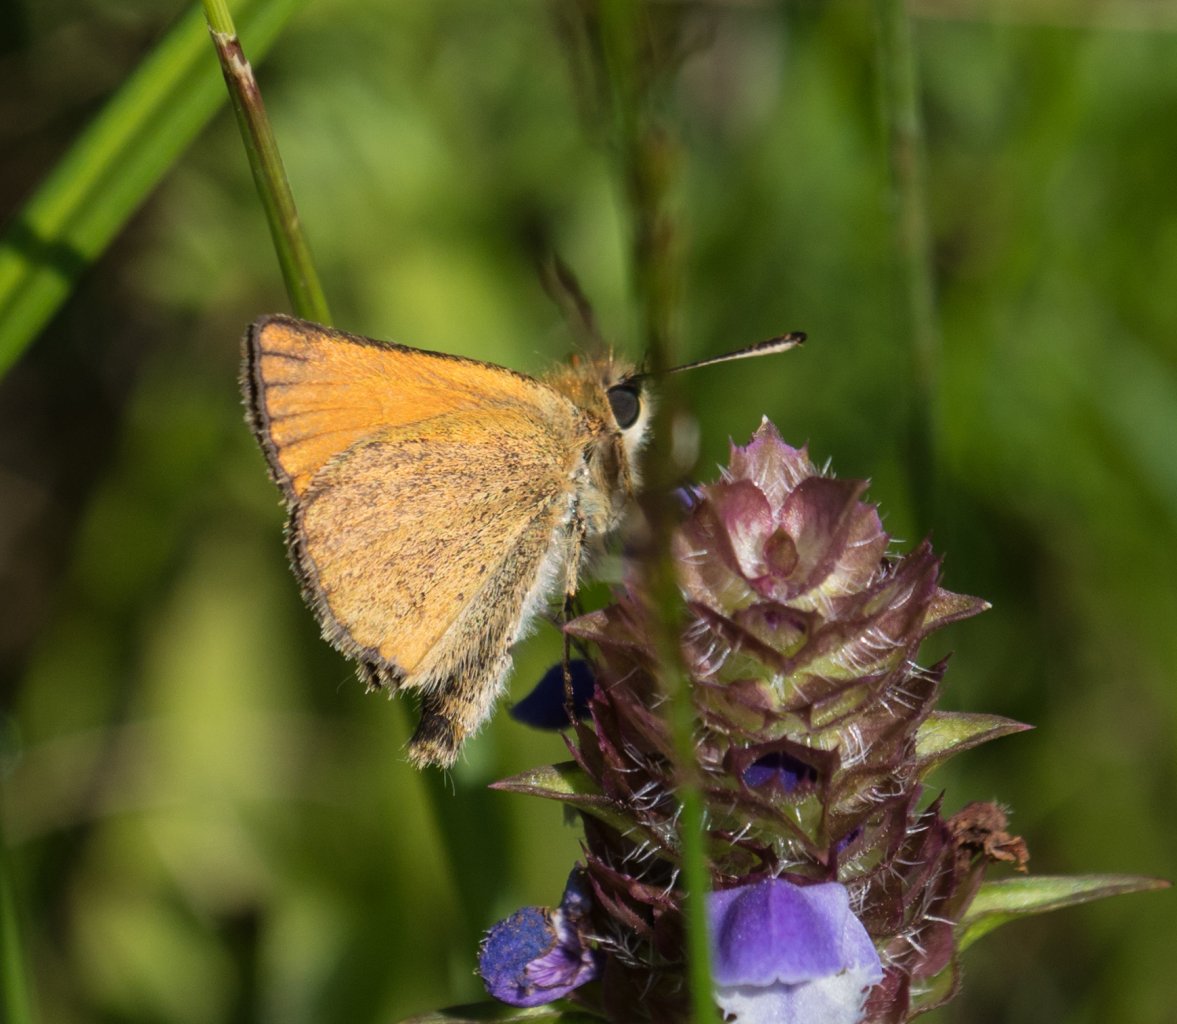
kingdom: Animalia
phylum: Arthropoda
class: Insecta
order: Lepidoptera
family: Hesperiidae
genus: Thymelicus
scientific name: Thymelicus lineola
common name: European Skipper
